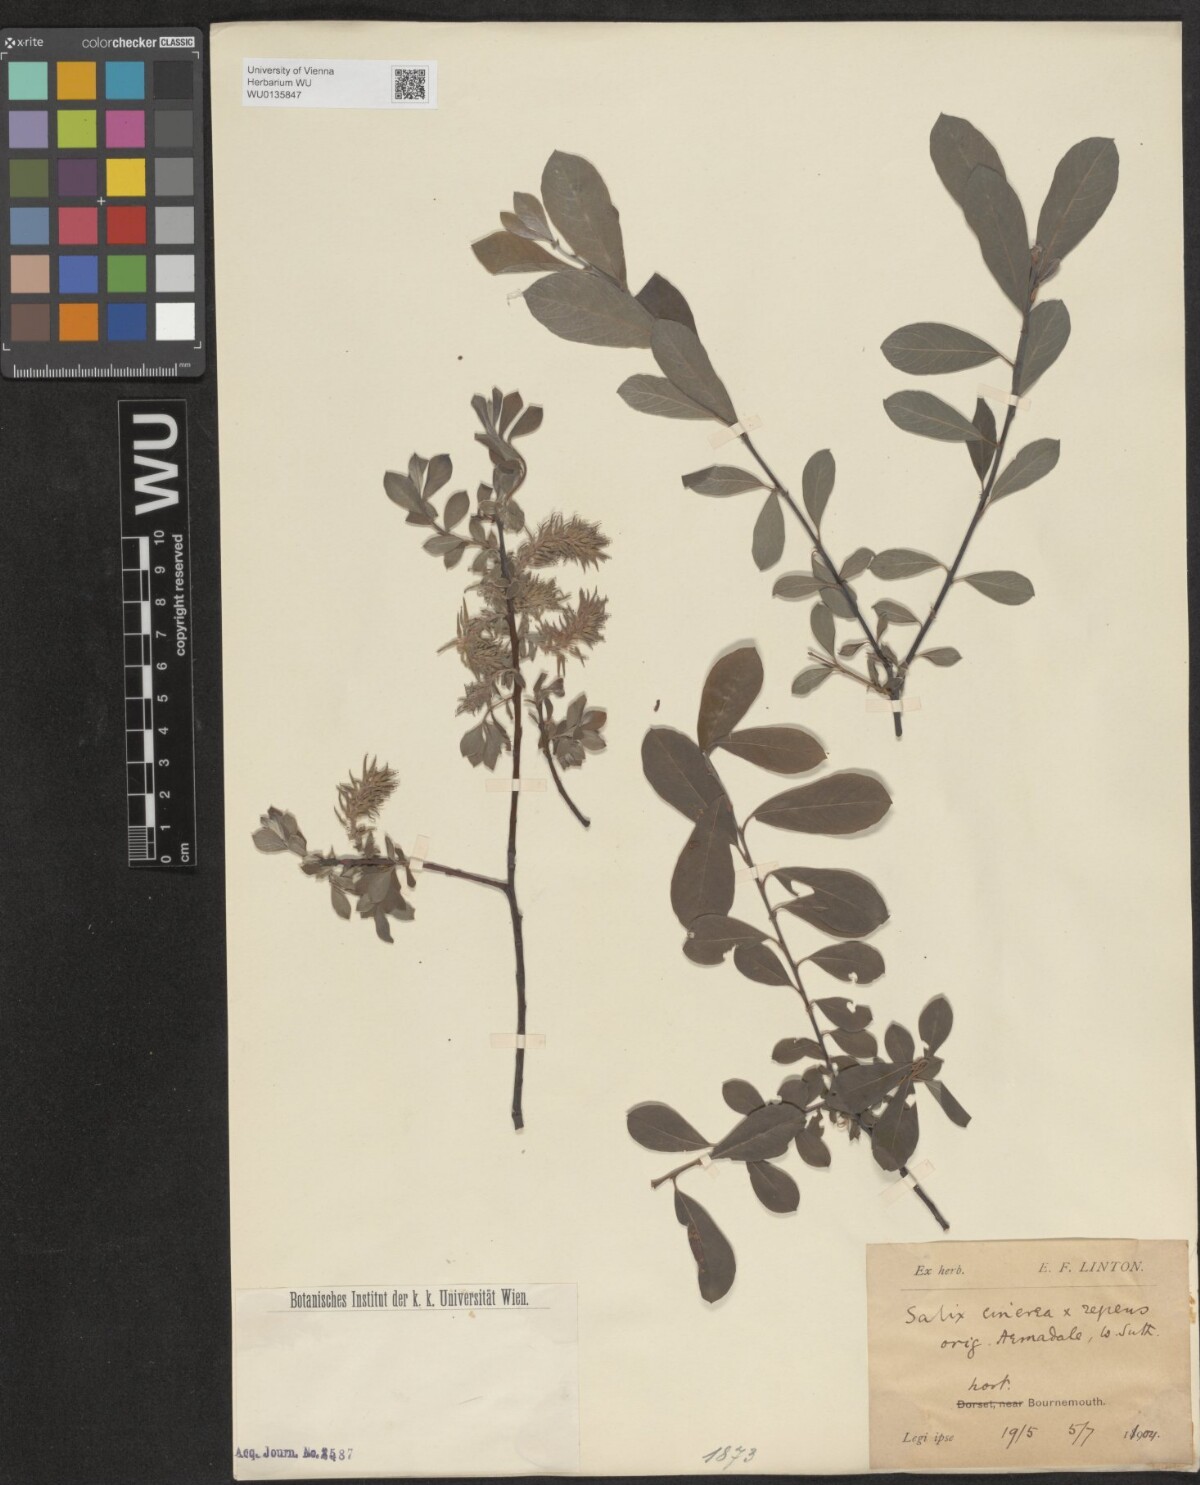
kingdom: Plantae
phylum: Tracheophyta
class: Magnoliopsida
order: Malpighiales
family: Salicaceae
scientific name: Salicaceae
